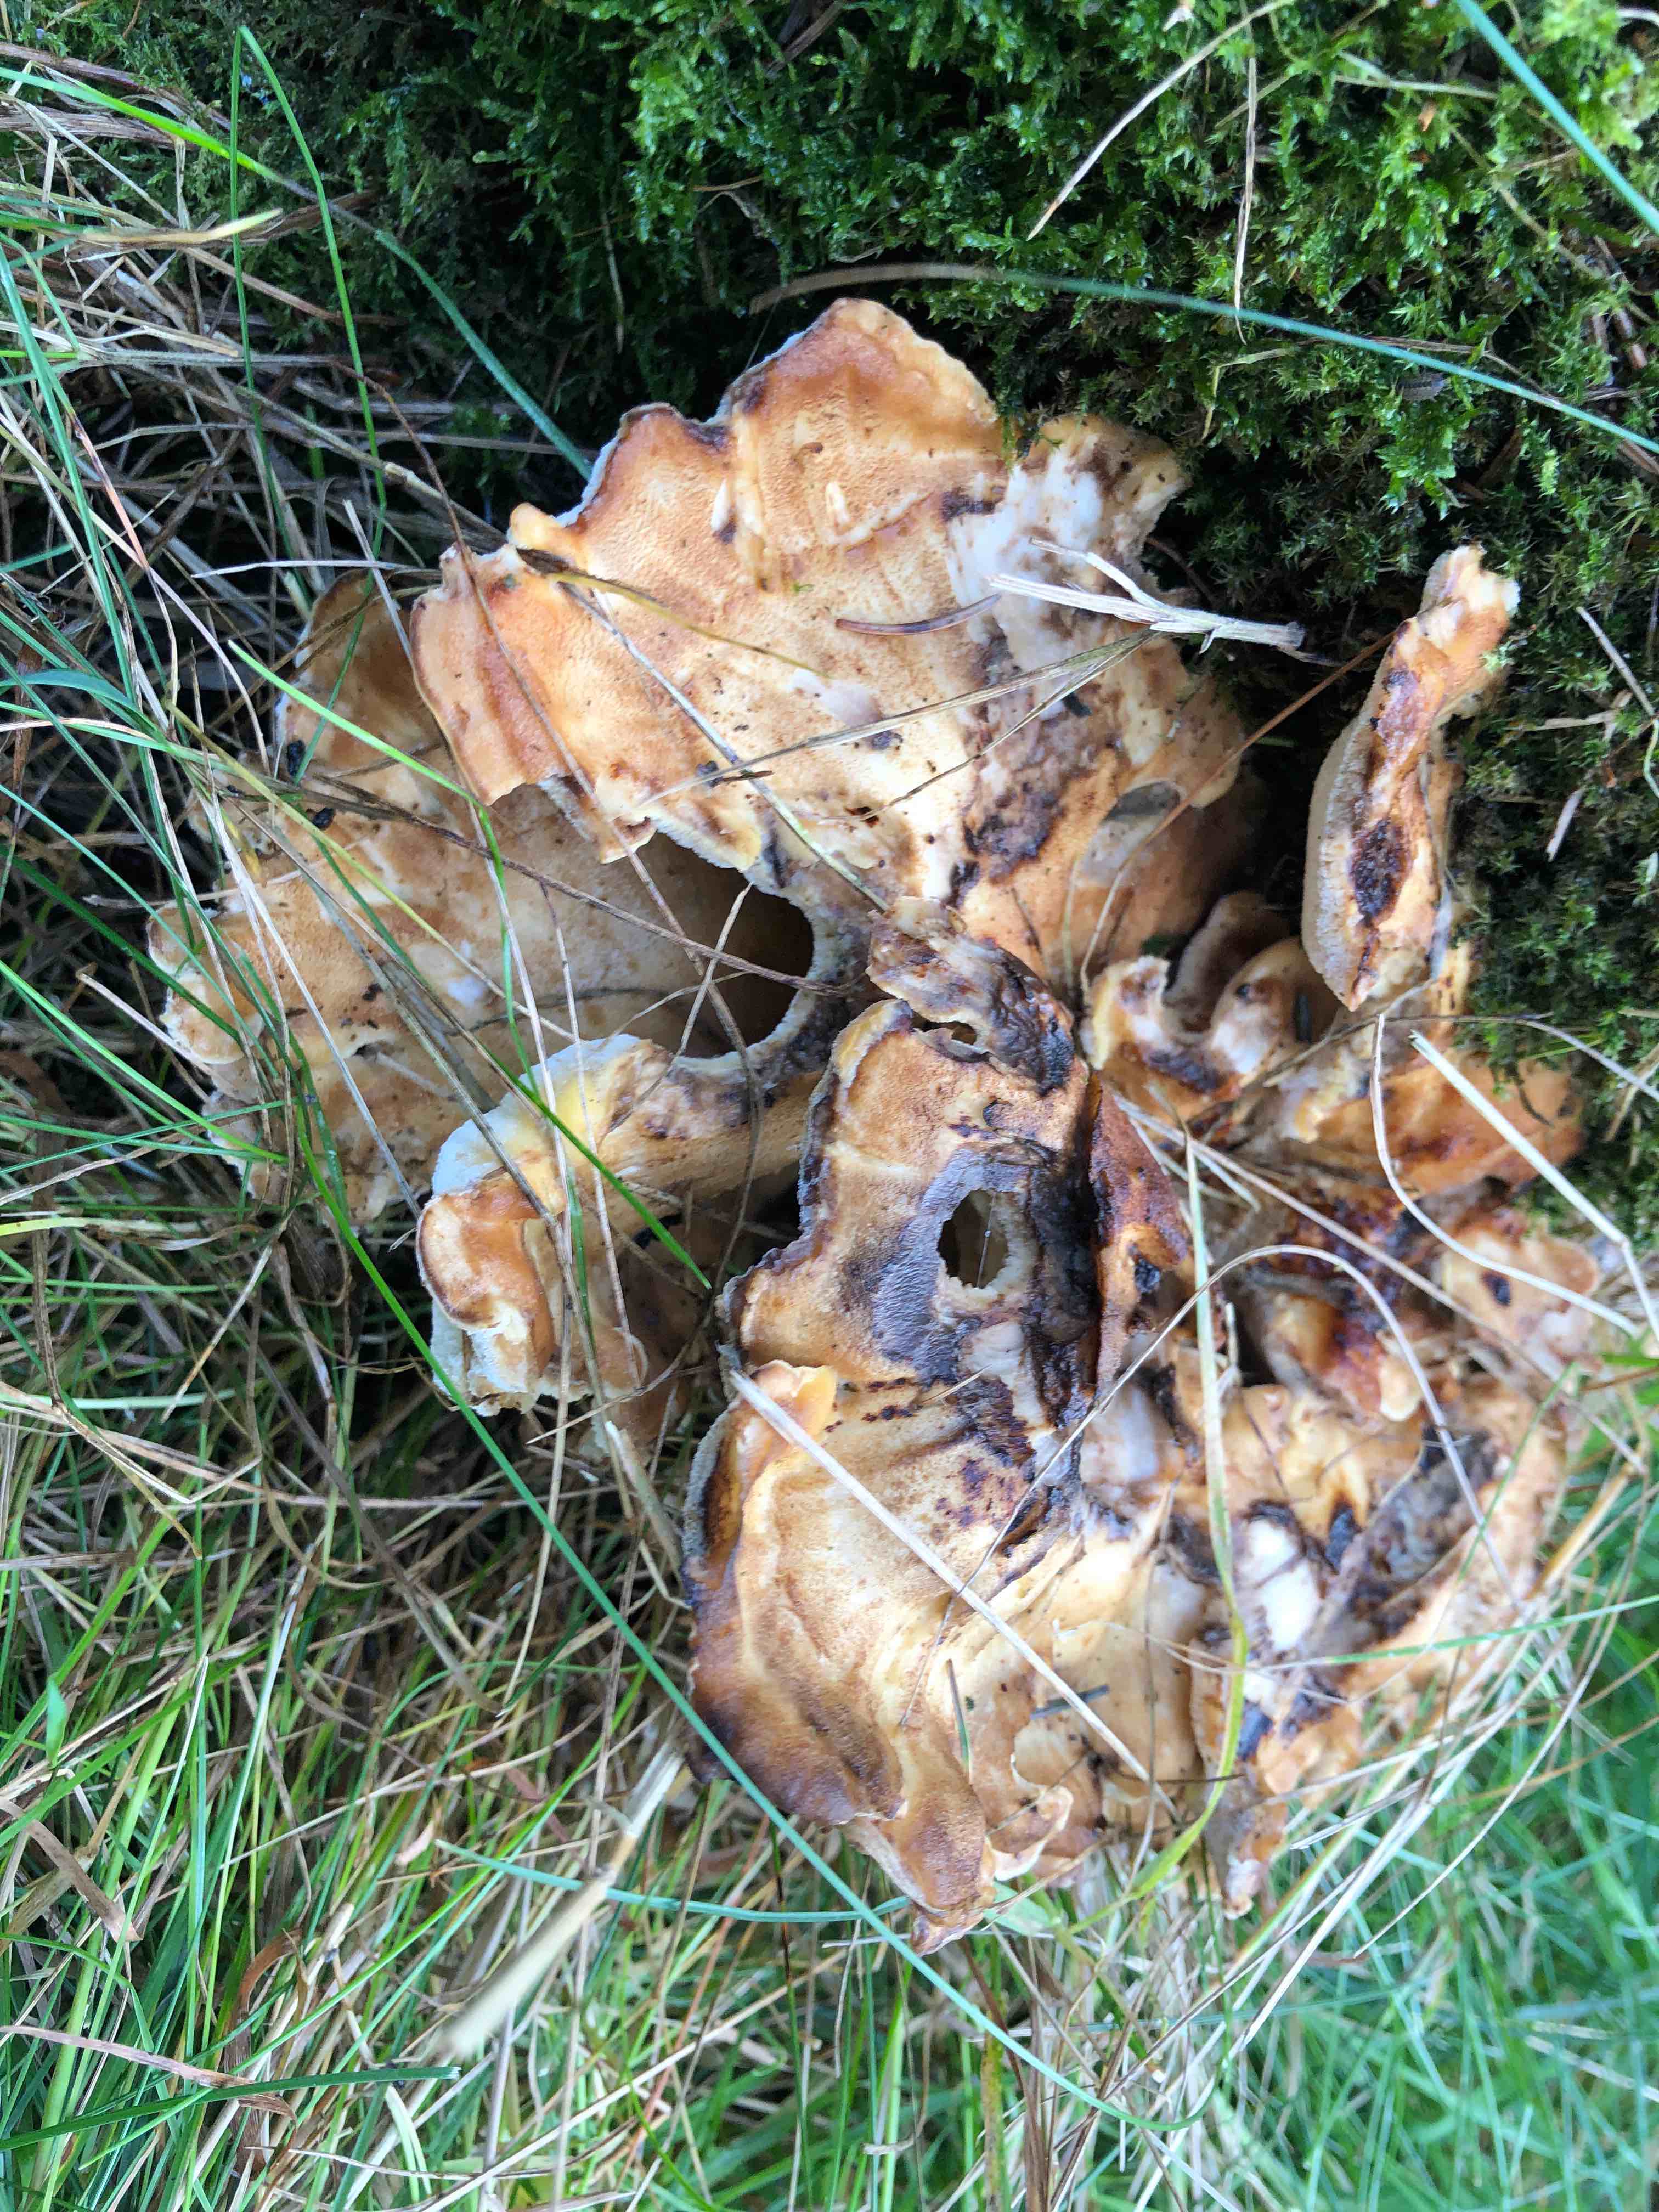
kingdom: Fungi
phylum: Basidiomycota
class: Agaricomycetes
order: Polyporales
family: Meripilaceae
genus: Meripilus
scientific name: Meripilus giganteus
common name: kæmpeporesvamp
